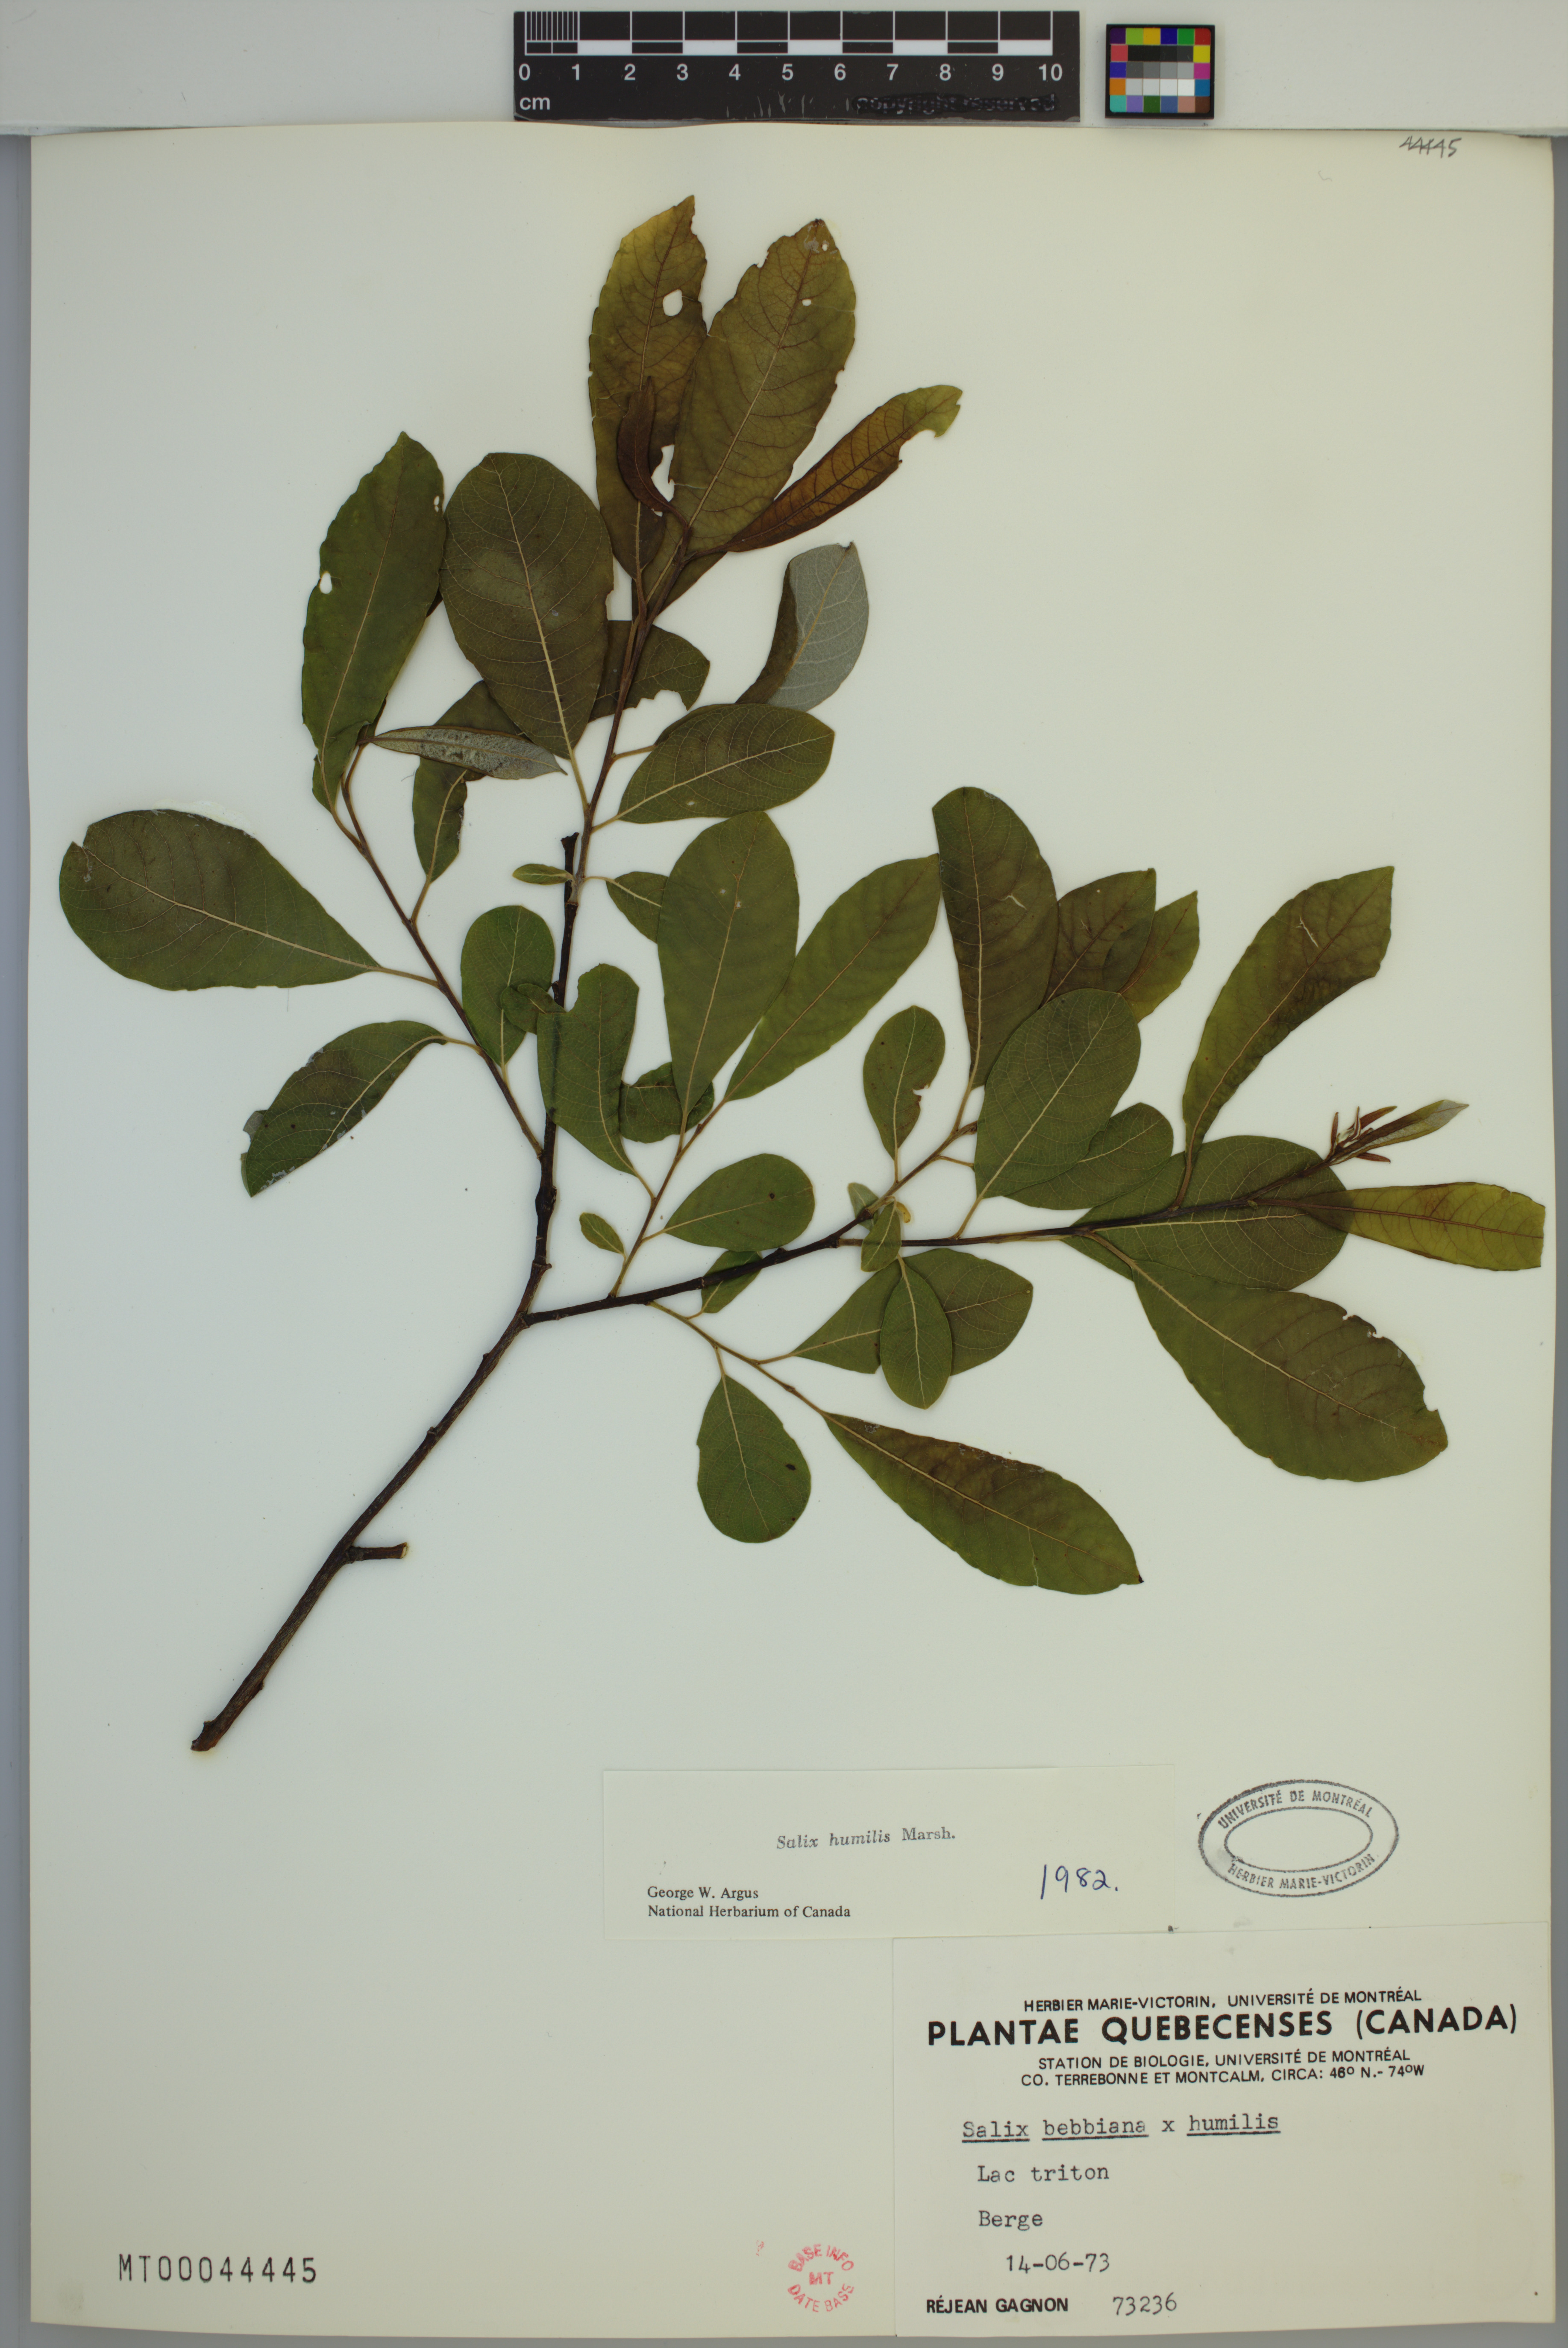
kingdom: Plantae
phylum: Tracheophyta
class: Magnoliopsida
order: Malpighiales
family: Salicaceae
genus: Salix
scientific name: Salix humilis
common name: Prairie willow
